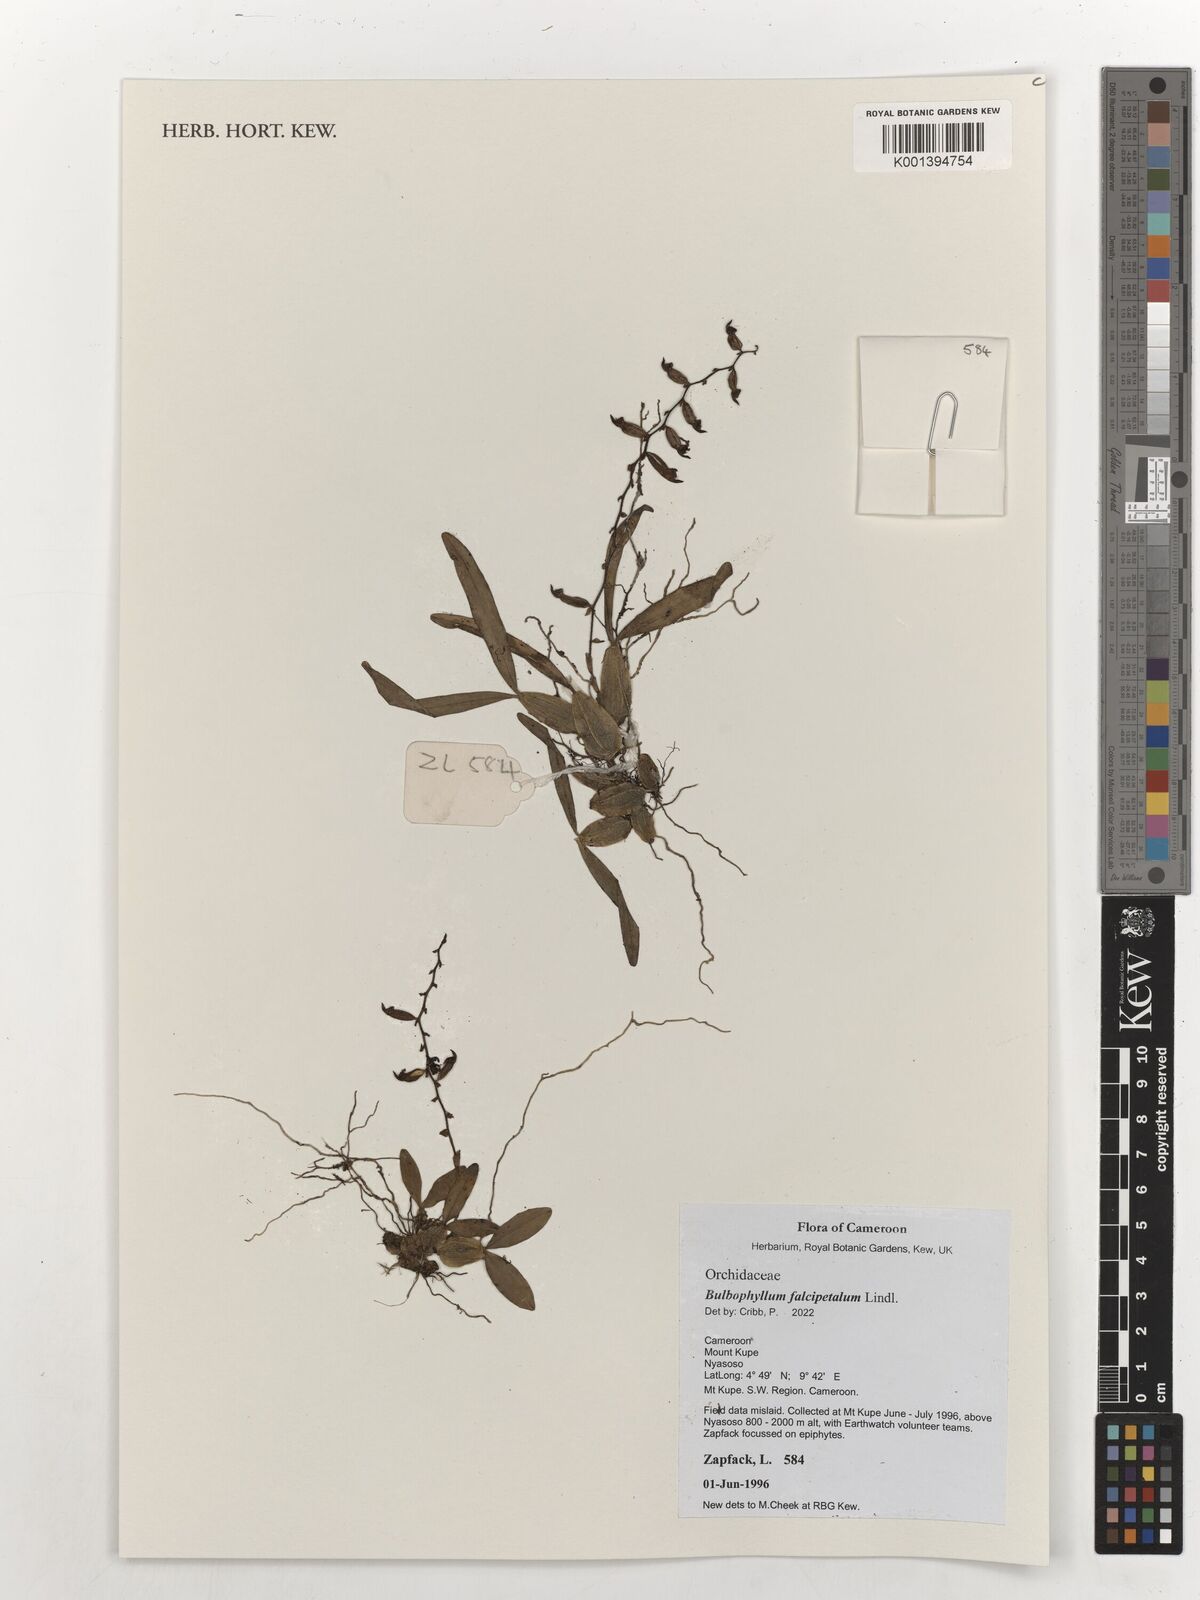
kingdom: Plantae
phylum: Tracheophyta
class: Liliopsida
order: Asparagales
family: Orchidaceae
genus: Bulbophyllum
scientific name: Bulbophyllum falcipetalum
